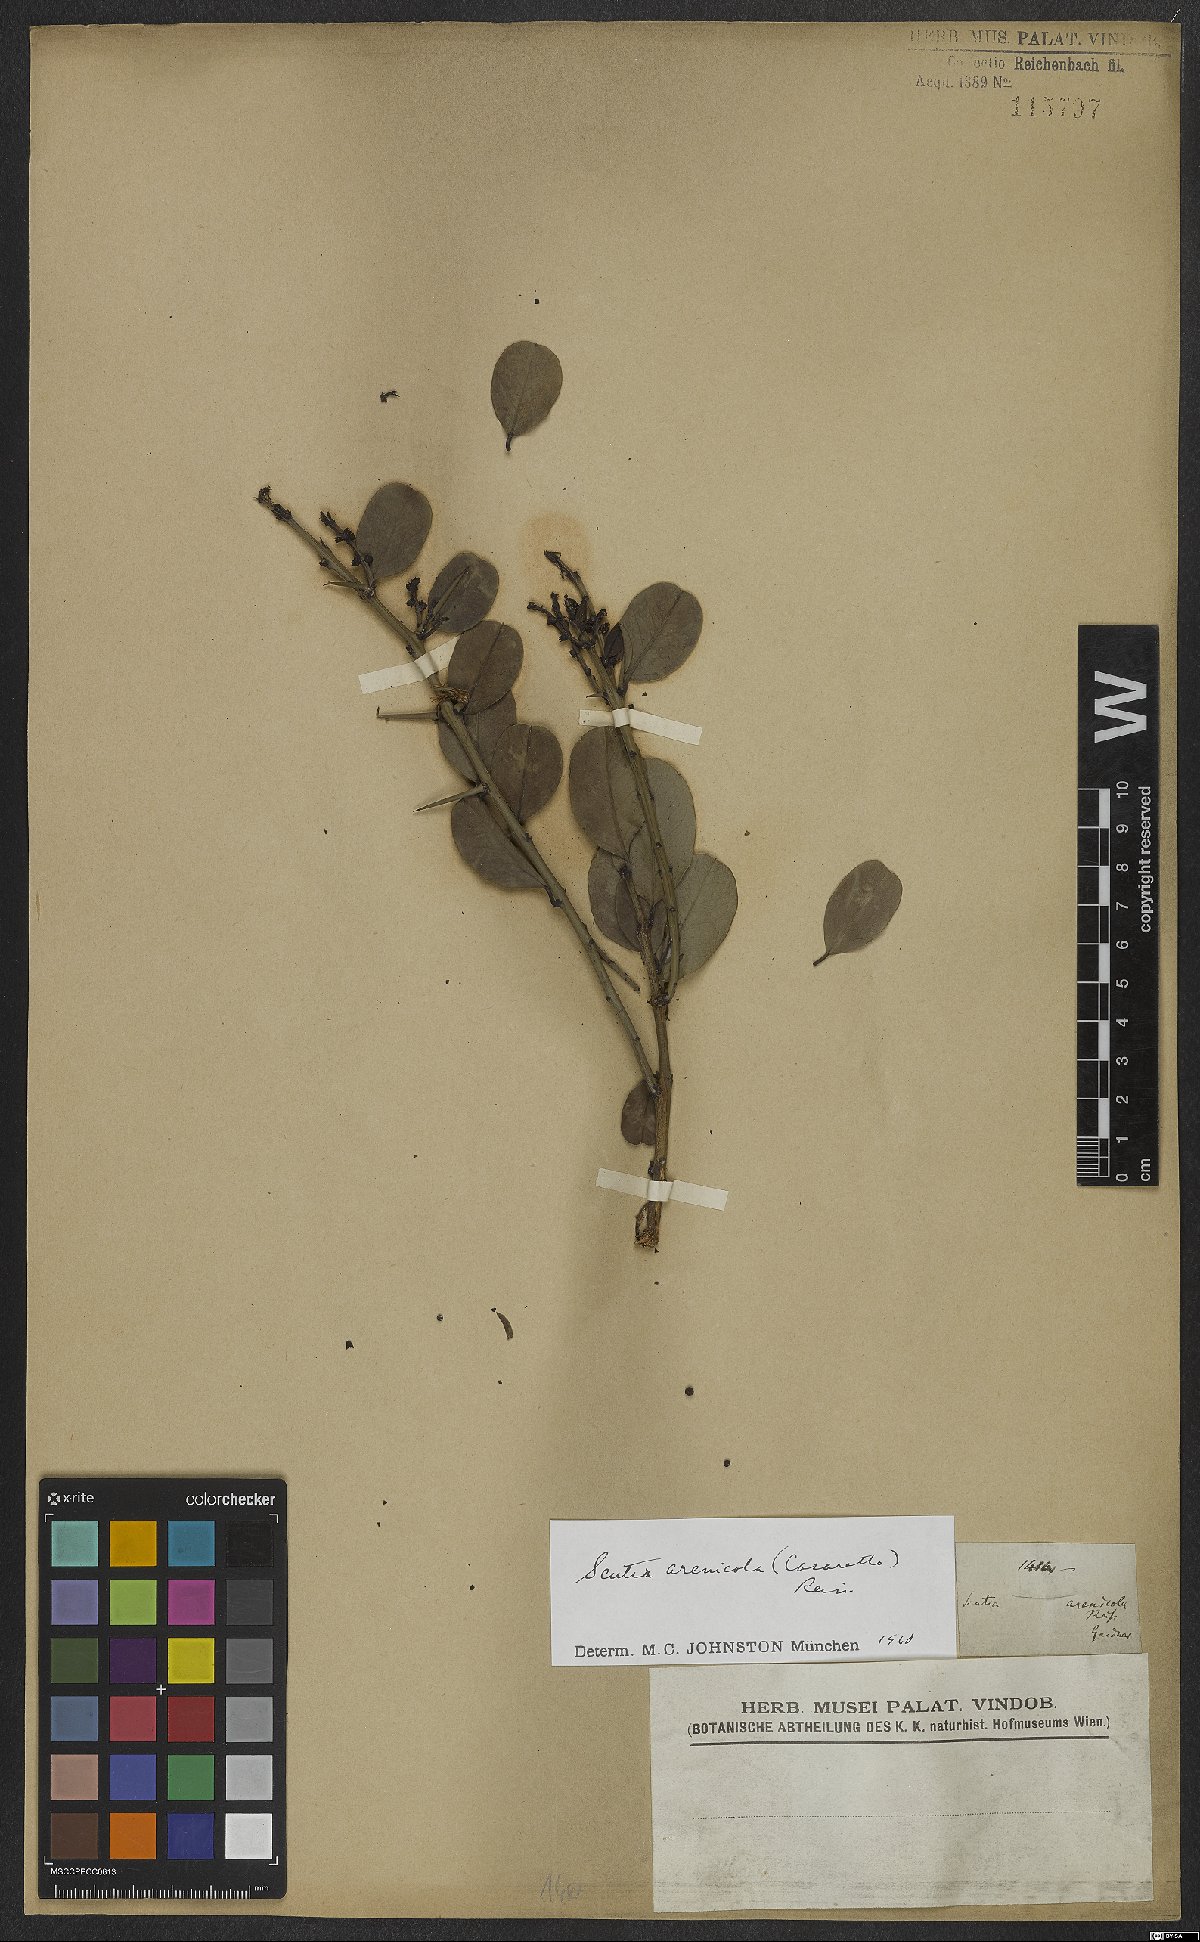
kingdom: Plantae
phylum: Tracheophyta
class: Magnoliopsida
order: Rosales
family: Rhamnaceae
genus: Scutia
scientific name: Scutia arenicola
